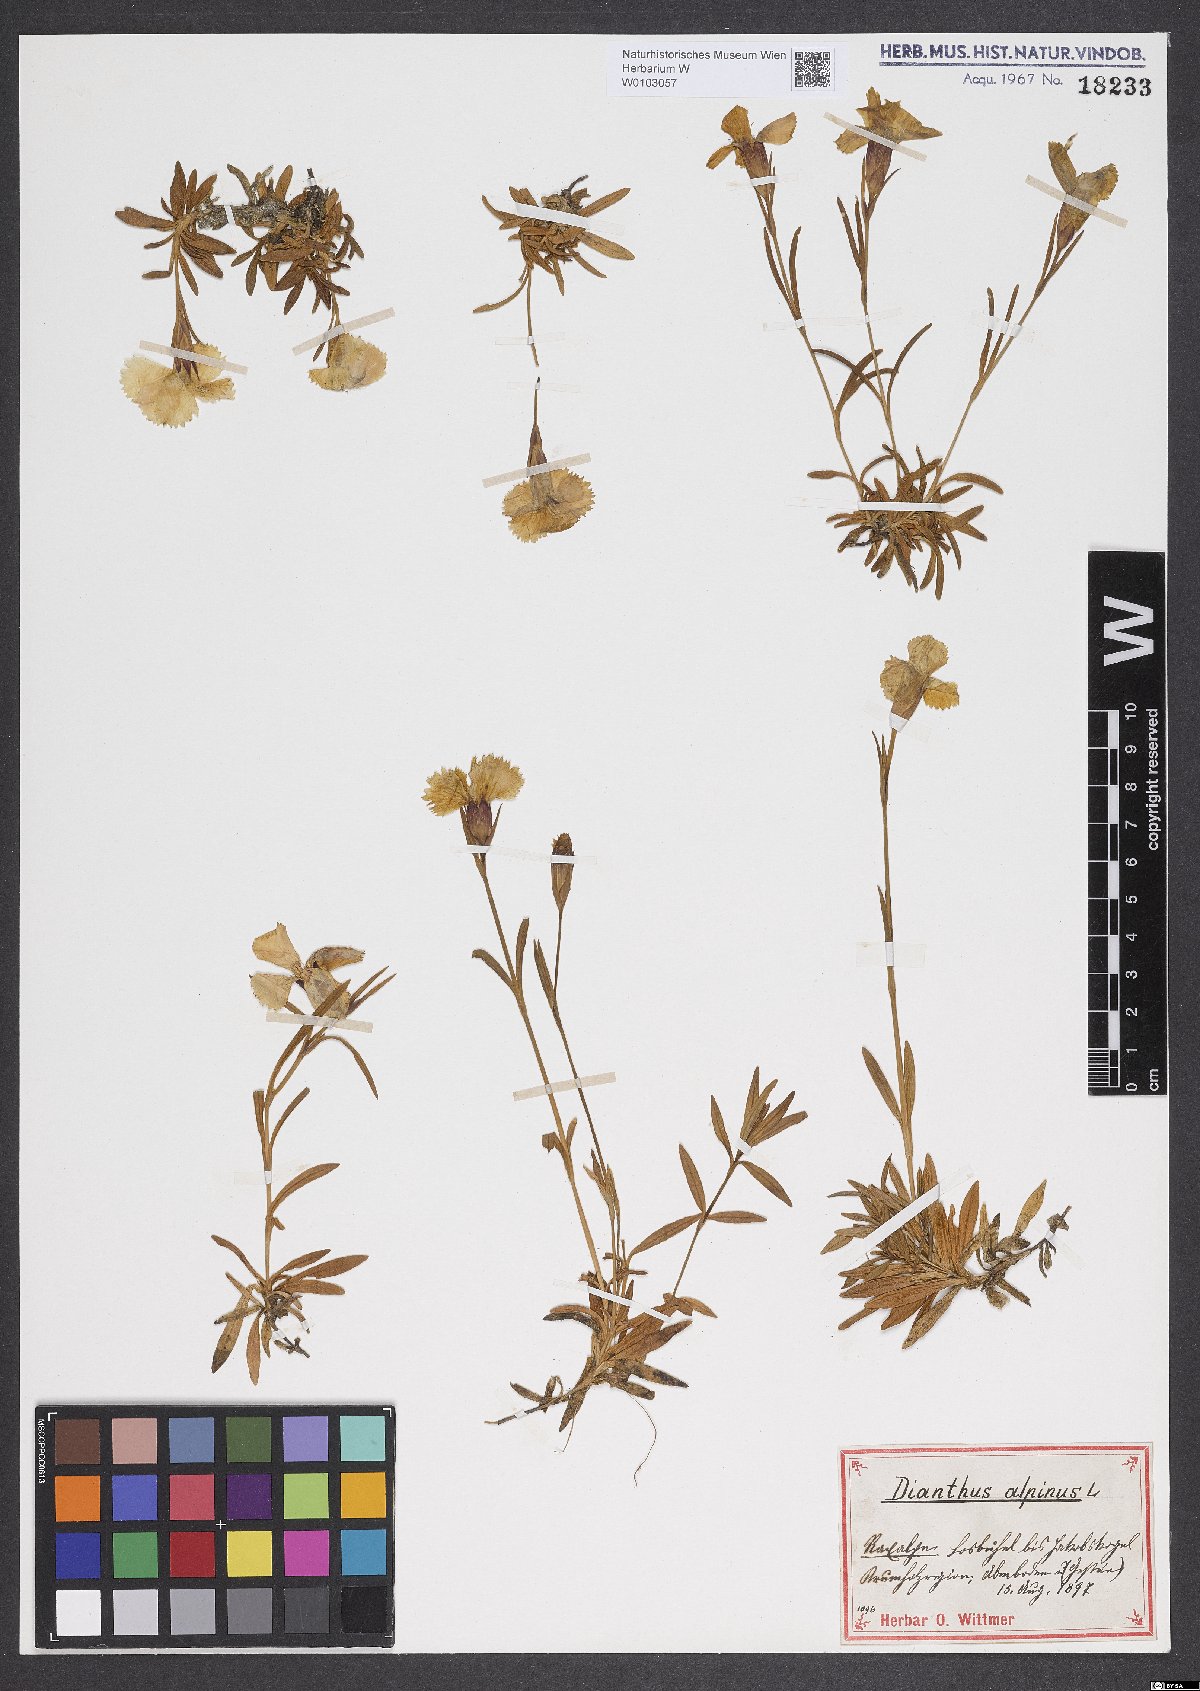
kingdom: Plantae
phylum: Tracheophyta
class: Magnoliopsida
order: Caryophyllales
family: Caryophyllaceae
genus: Dianthus
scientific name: Dianthus alpinus
